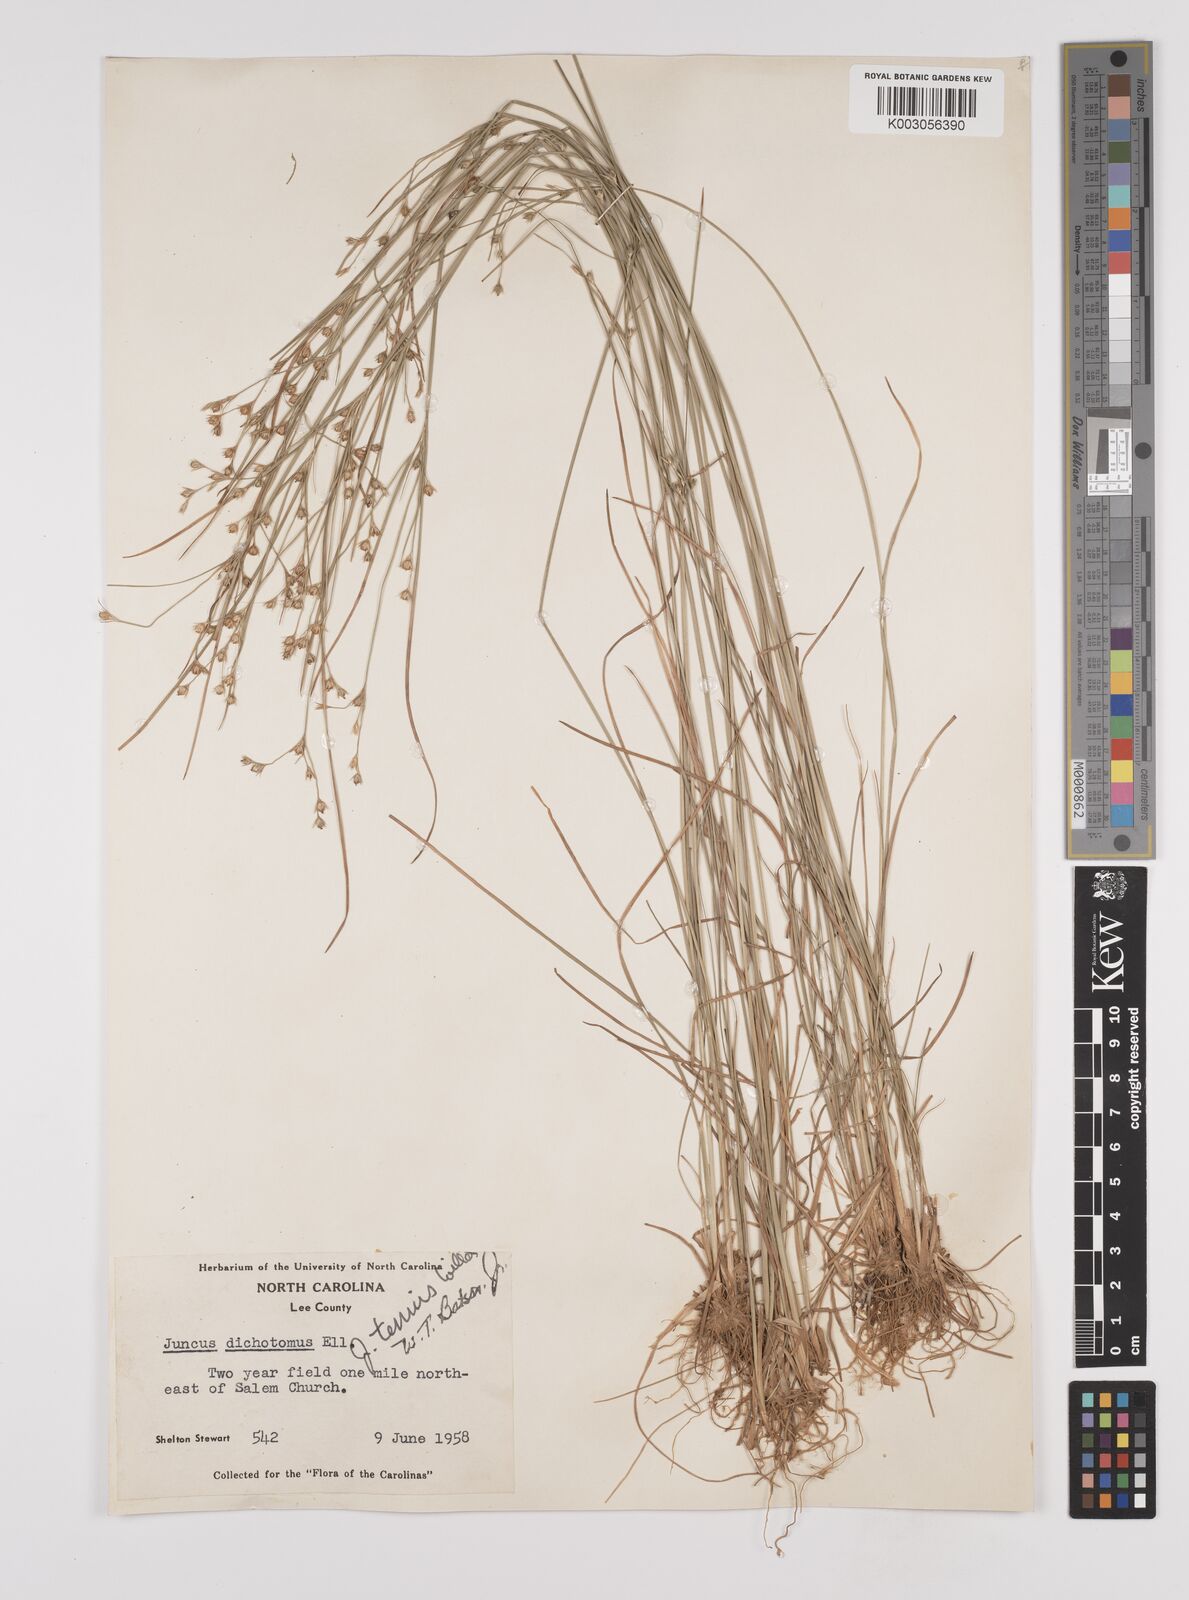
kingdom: Plantae
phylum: Tracheophyta
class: Liliopsida
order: Poales
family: Juncaceae
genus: Juncus
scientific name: Juncus tenuis
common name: Slender rush
